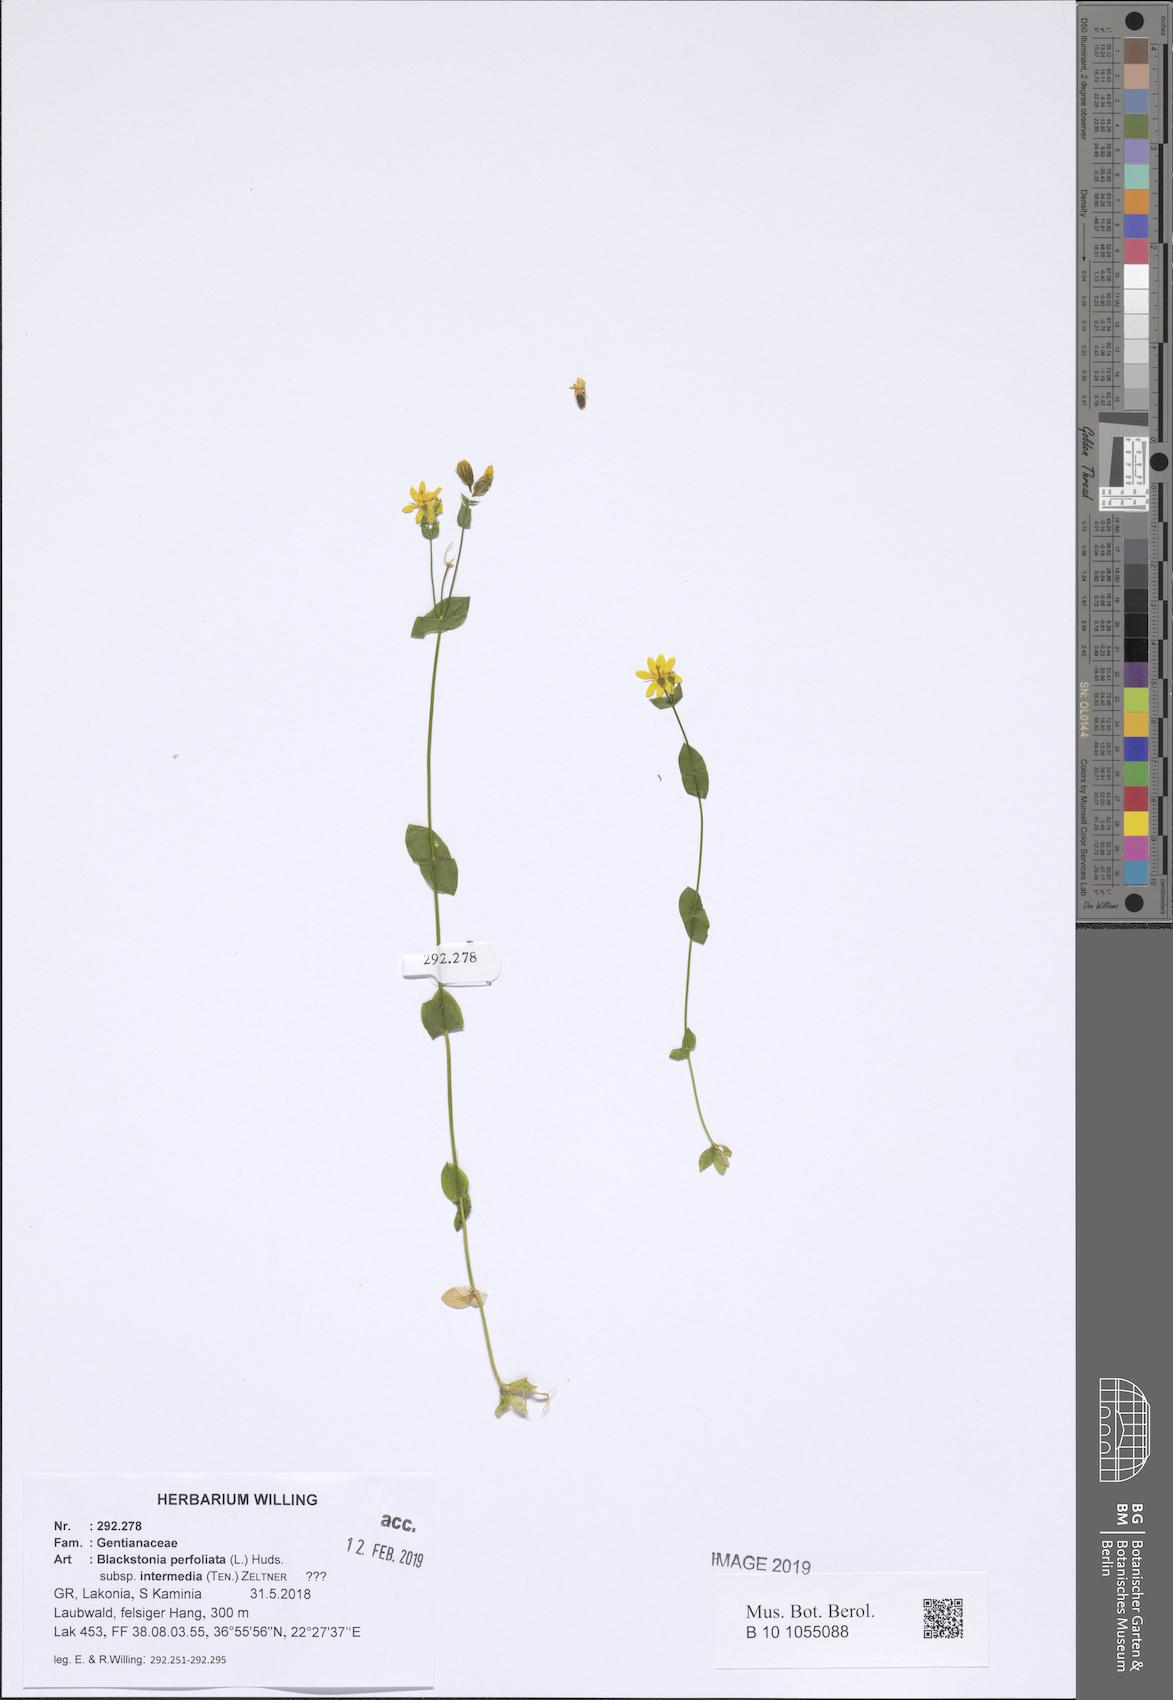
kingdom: Plantae
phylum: Tracheophyta
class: Magnoliopsida
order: Gentianales
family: Gentianaceae
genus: Blackstonia
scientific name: Blackstonia perfoliata
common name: Yellow-wort
